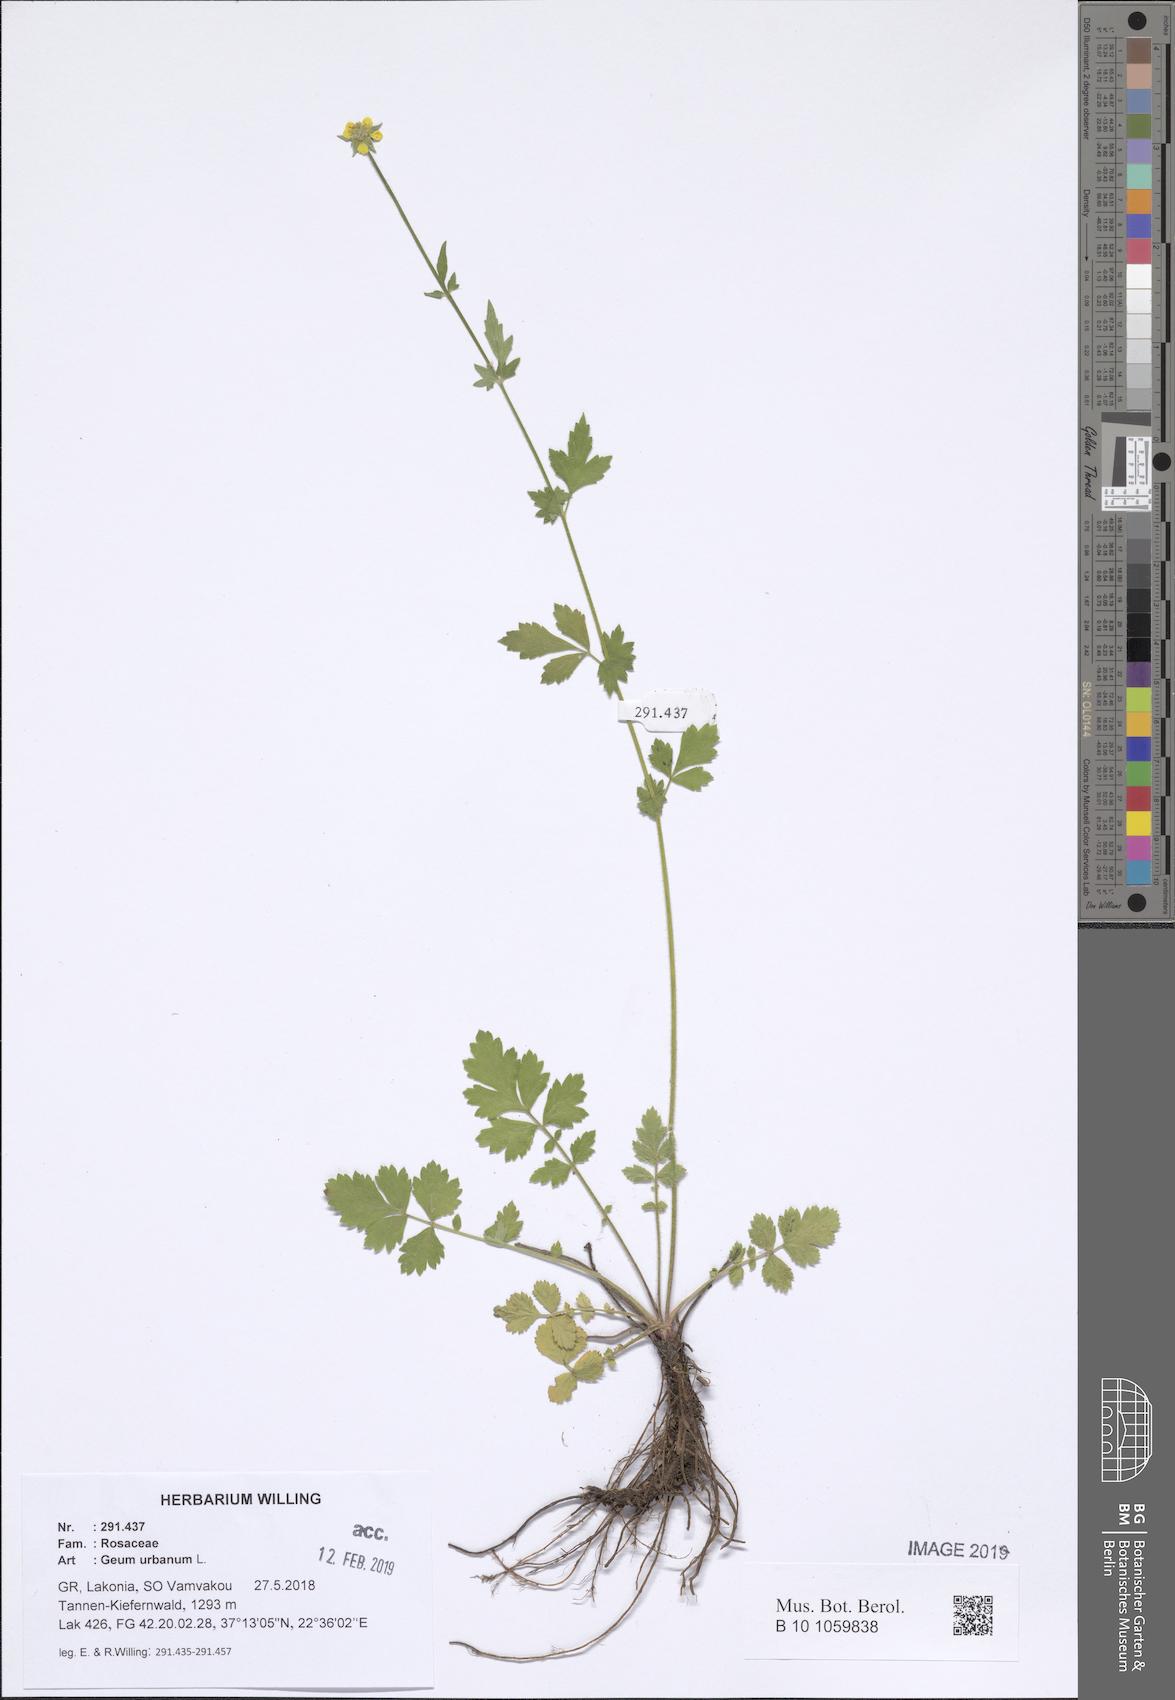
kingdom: Plantae
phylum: Tracheophyta
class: Magnoliopsida
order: Rosales
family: Rosaceae
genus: Geum
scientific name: Geum urbanum
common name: Wood avens
